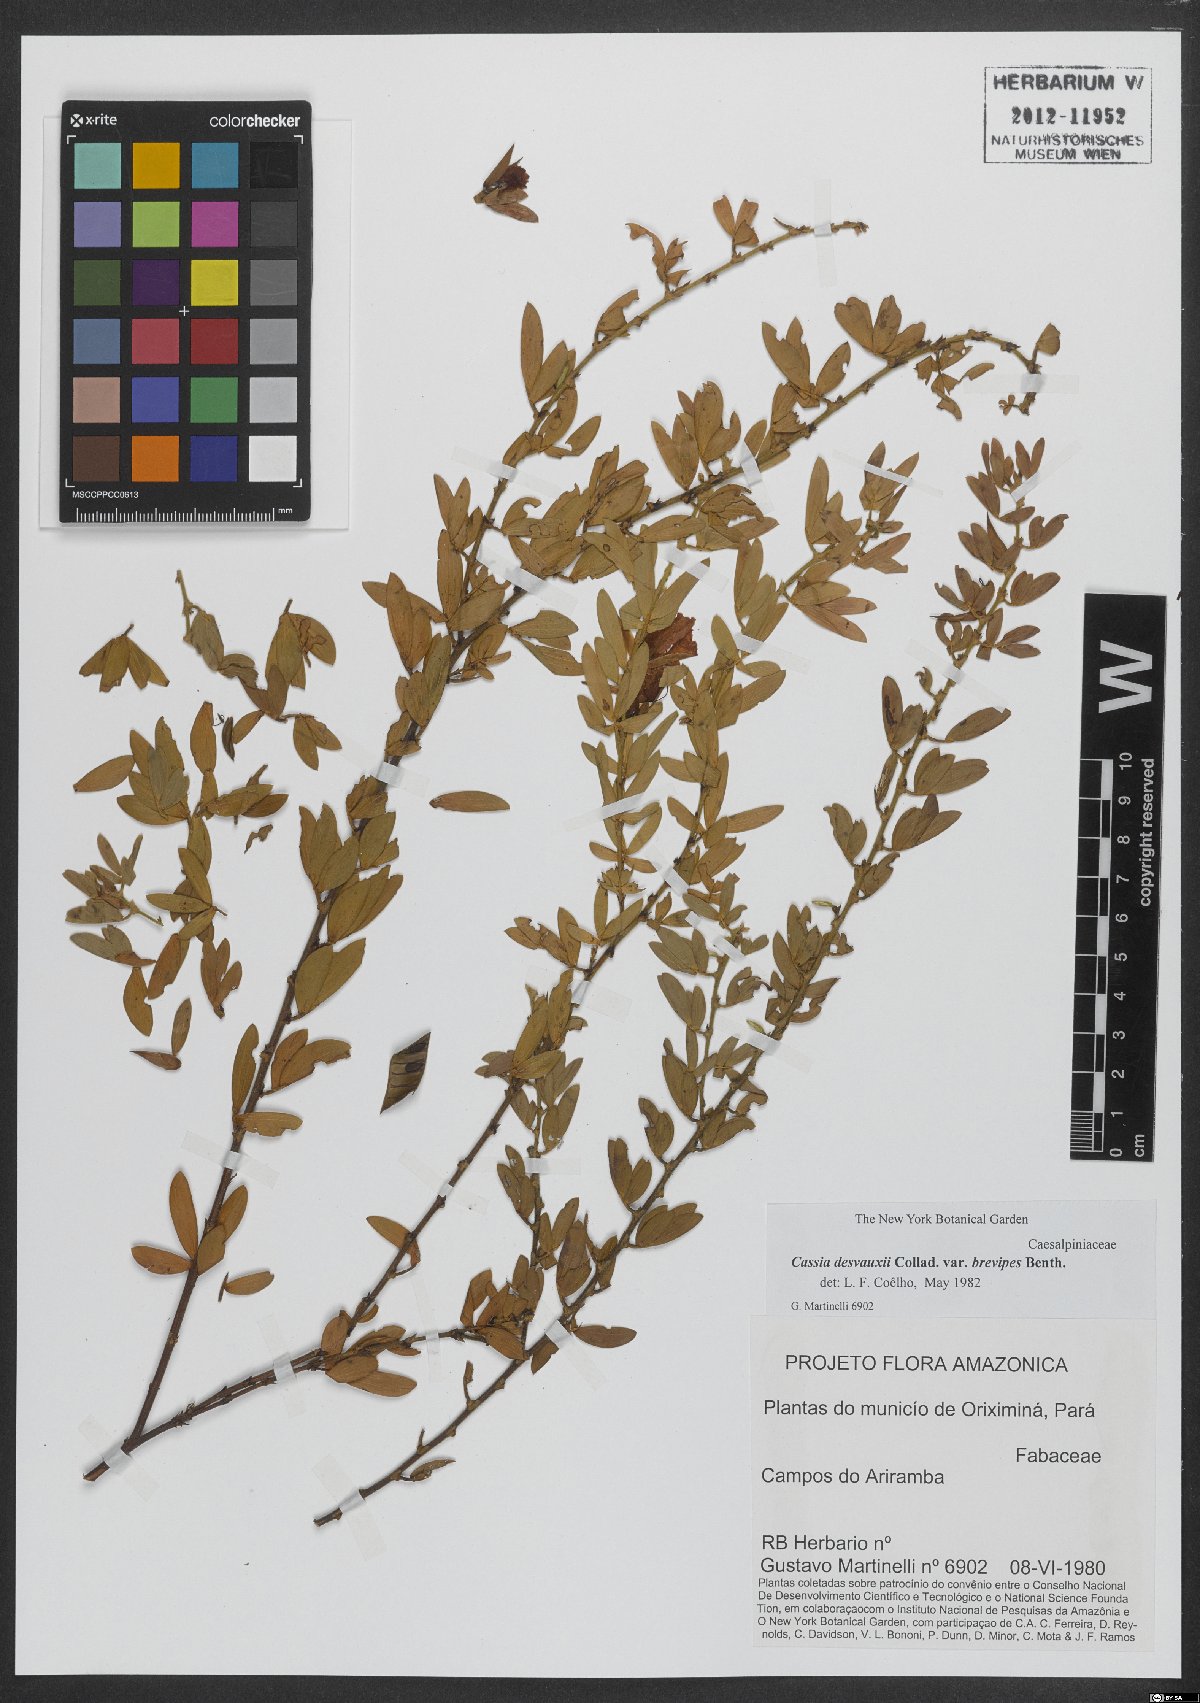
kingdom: Plantae
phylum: Tracheophyta
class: Magnoliopsida
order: Fabales
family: Fabaceae
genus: Chamaecrista
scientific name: Chamaecrista desvauxii
